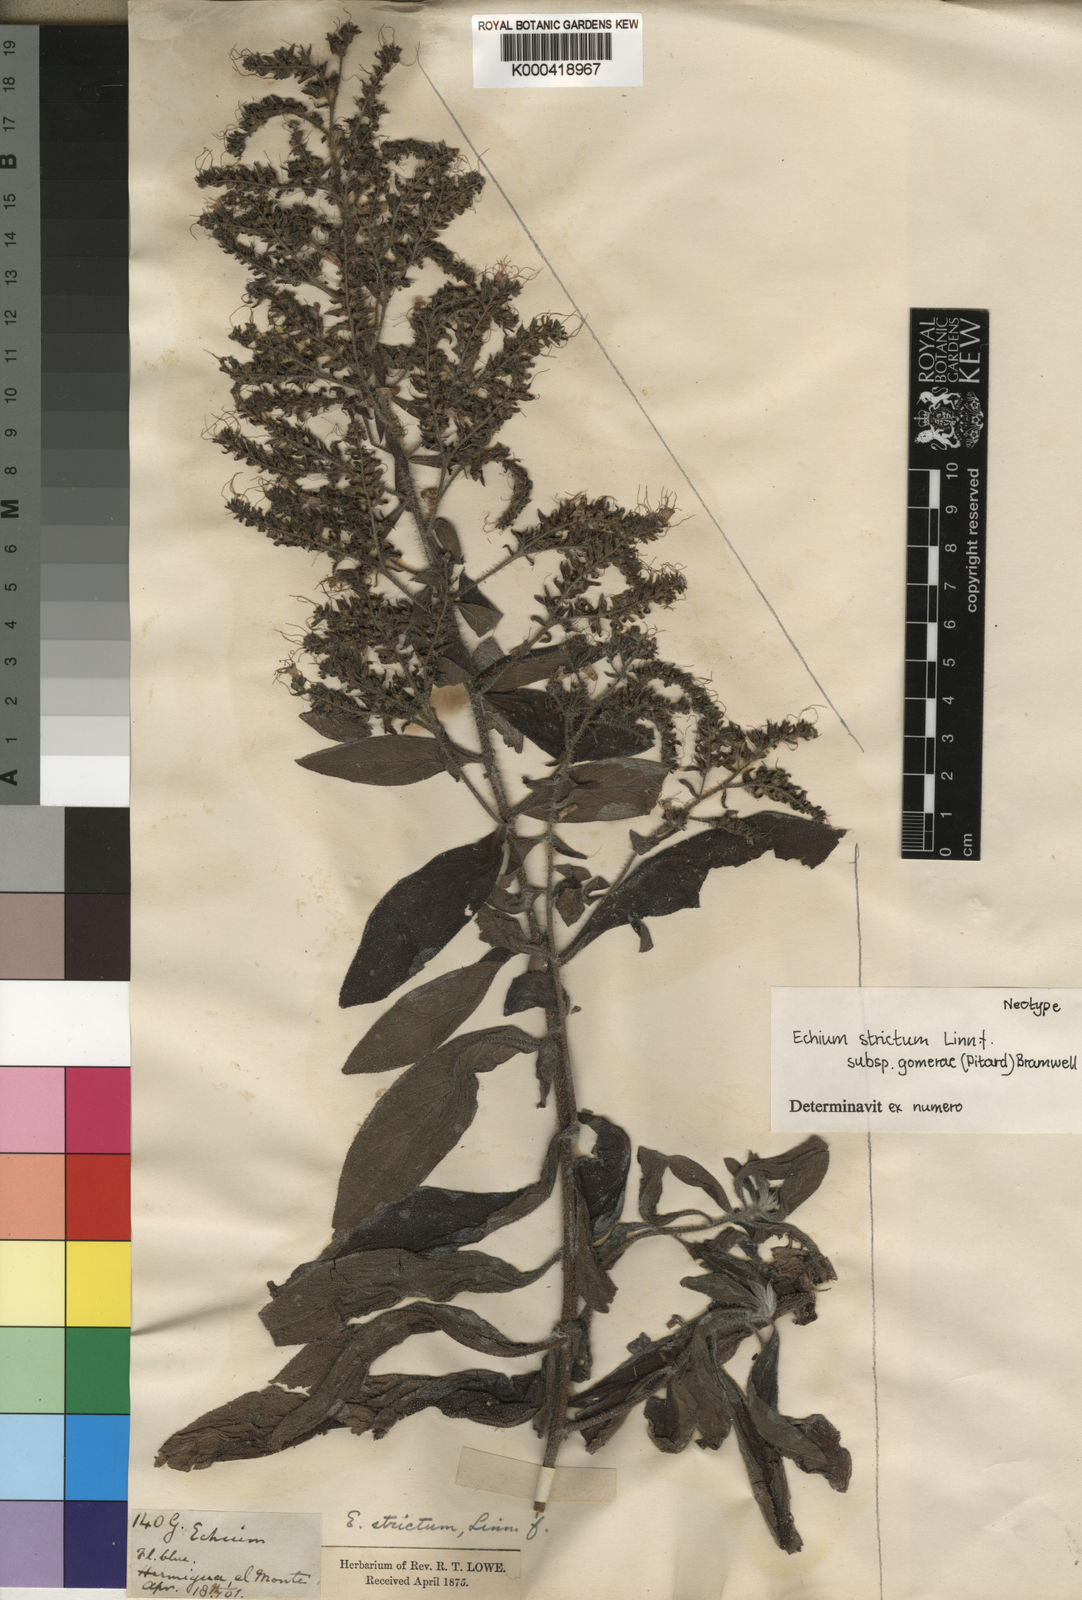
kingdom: Plantae
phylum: Tracheophyta
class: Magnoliopsida
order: Boraginales
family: Boraginaceae
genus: Echium
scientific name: Echium strictum
